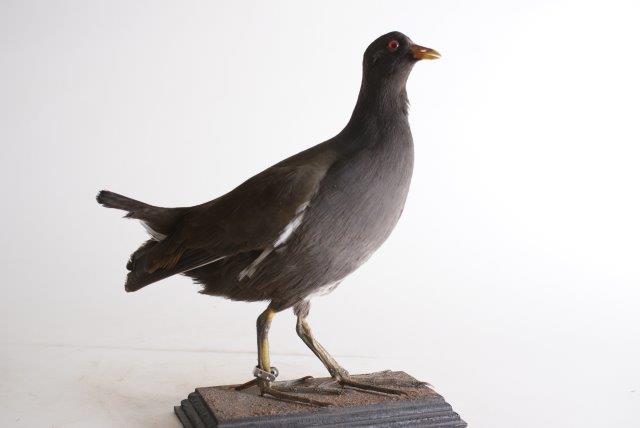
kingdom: Animalia
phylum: Chordata
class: Aves
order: Gruiformes
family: Rallidae
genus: Gallinula
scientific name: Gallinula chloropus
